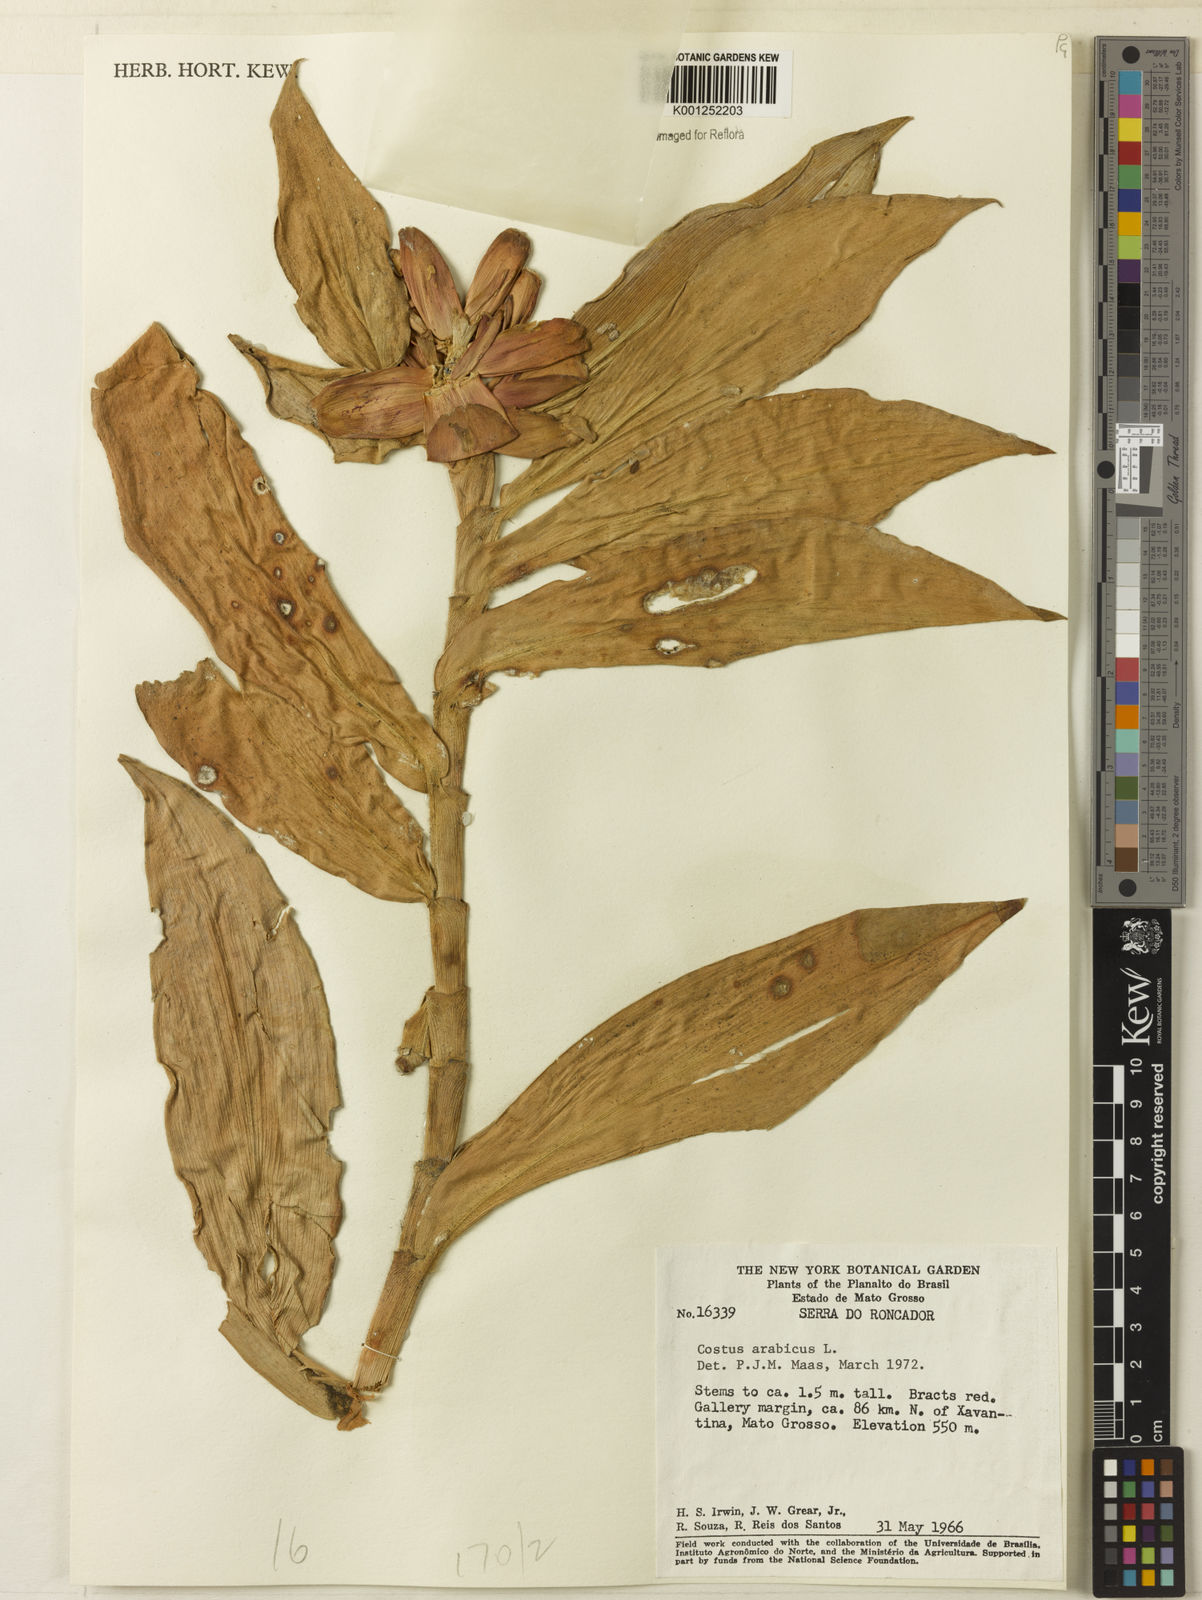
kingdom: Plantae
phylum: Tracheophyta
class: Liliopsida
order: Zingiberales
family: Costaceae
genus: Costus
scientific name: Costus arabicus
